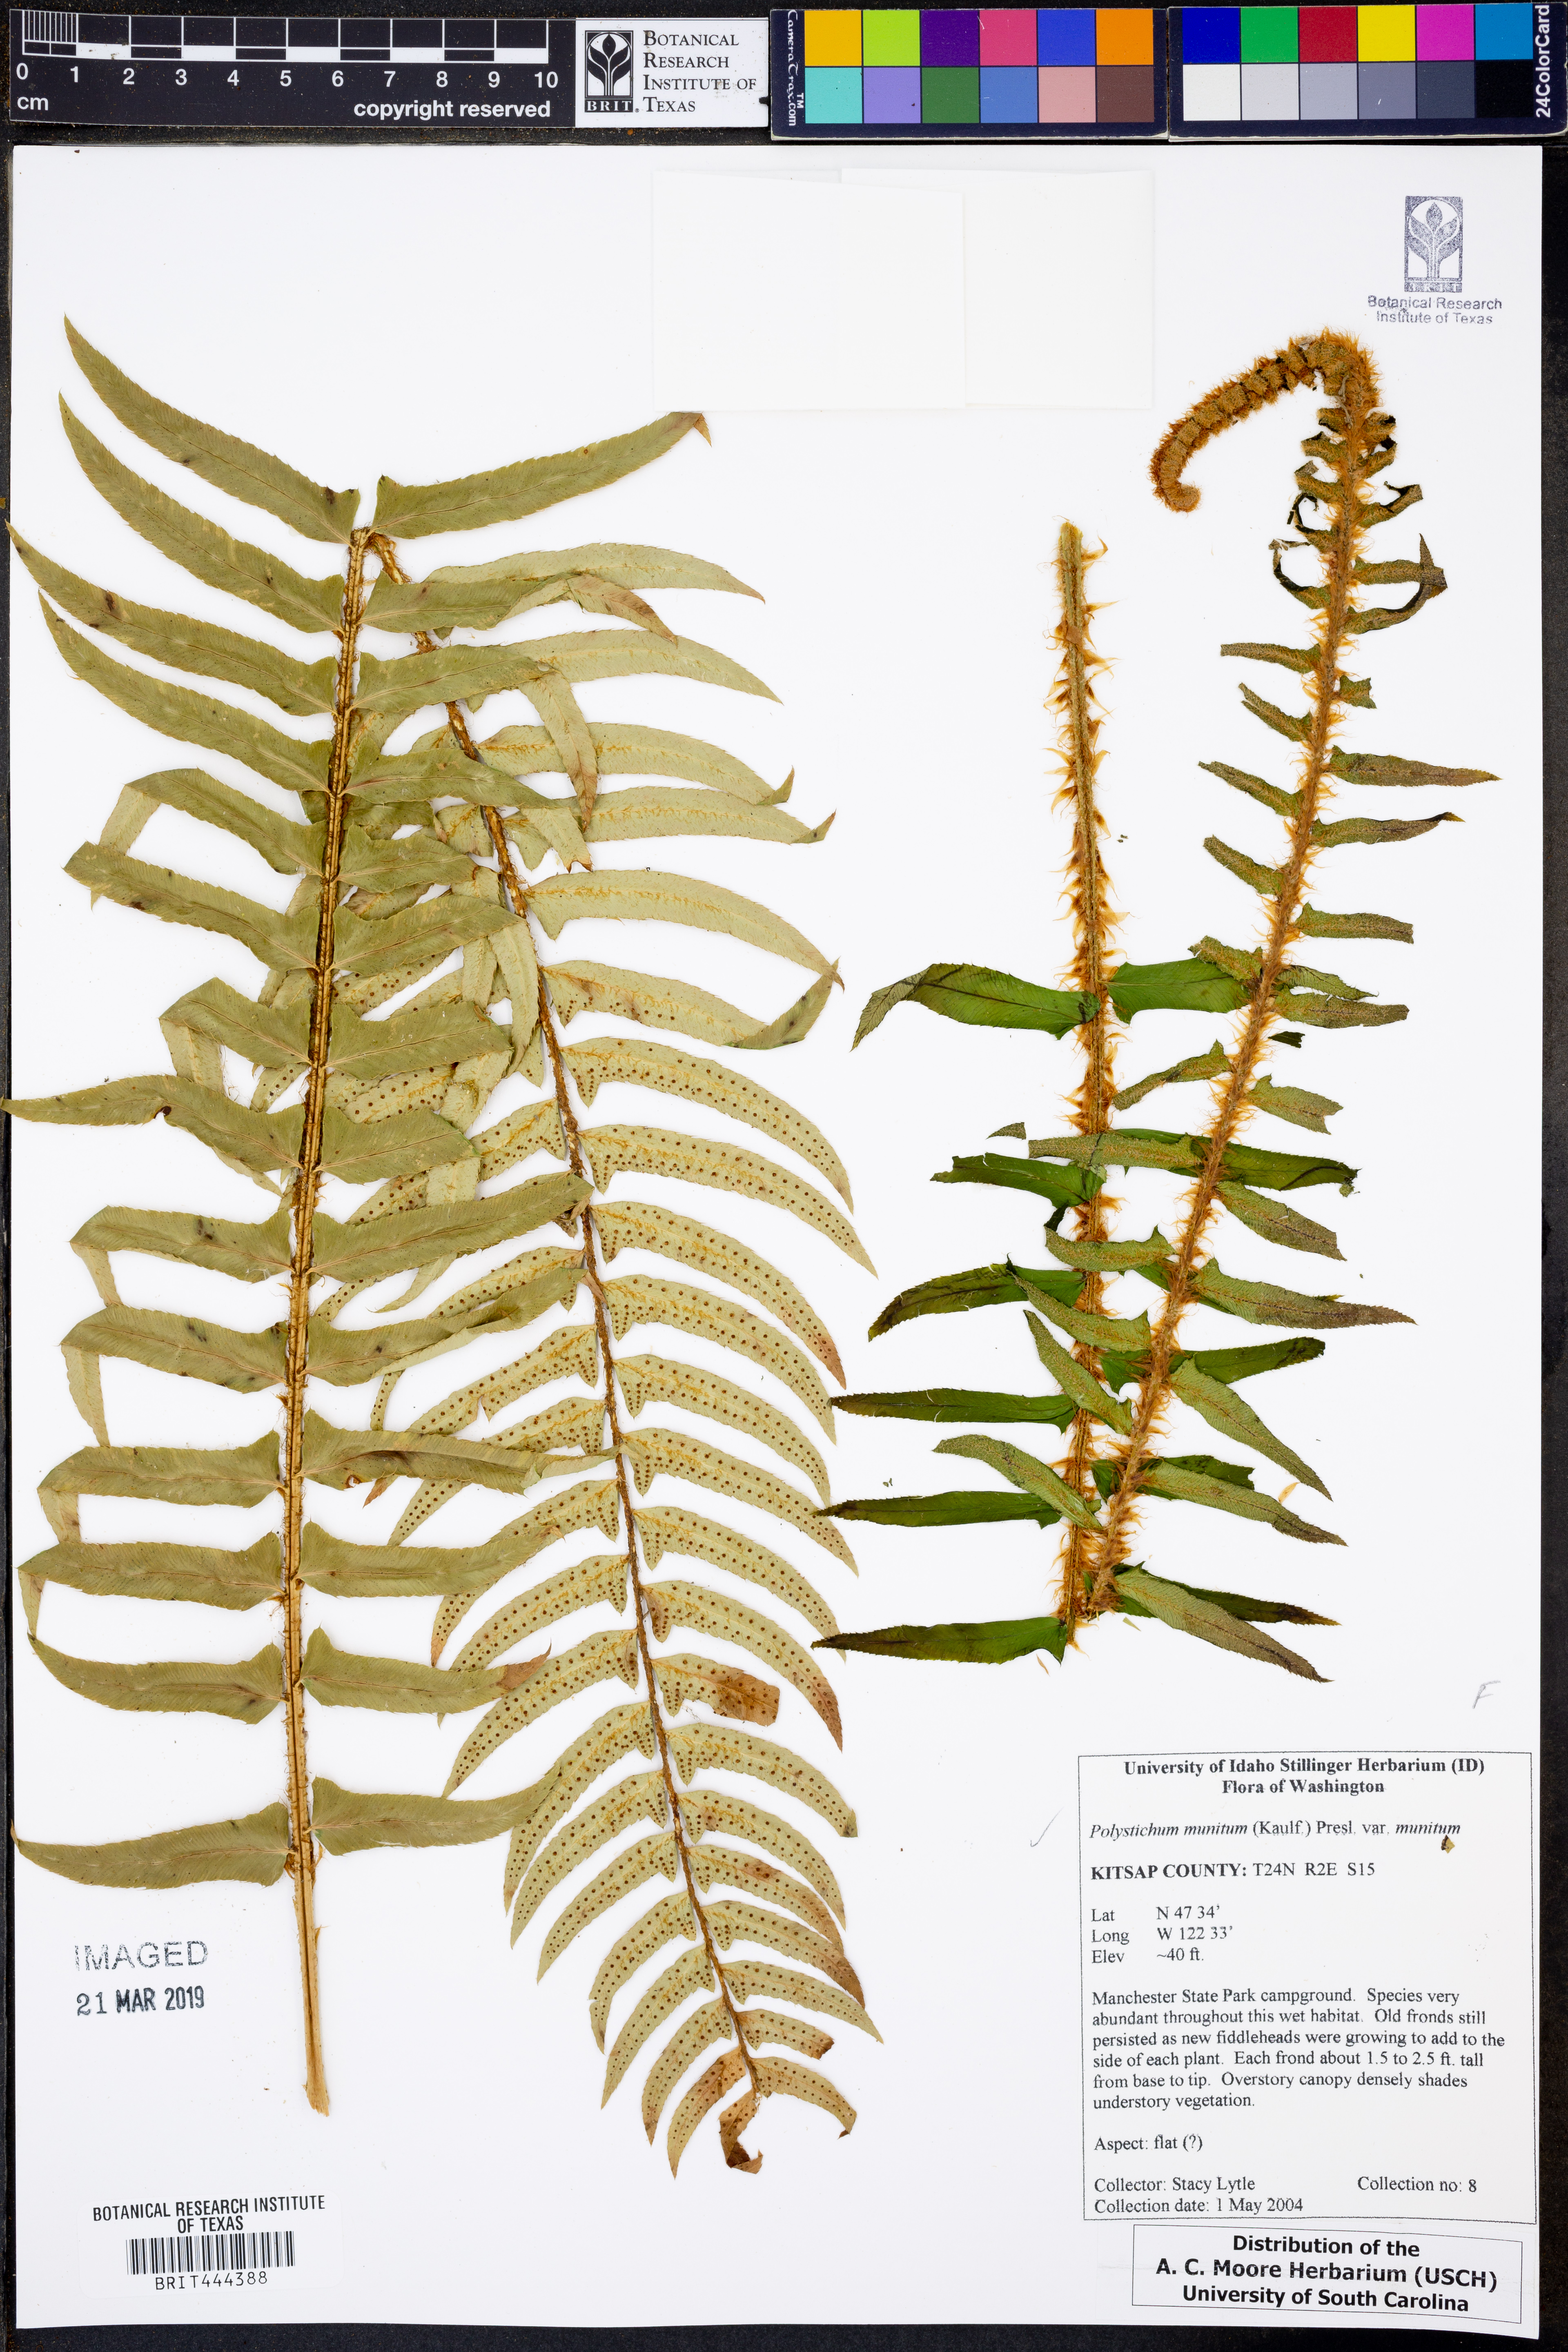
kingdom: Plantae
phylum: Tracheophyta
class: Polypodiopsida
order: Polypodiales
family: Dryopteridaceae
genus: Polystichum
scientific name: Polystichum munitum
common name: Western sword-fern
